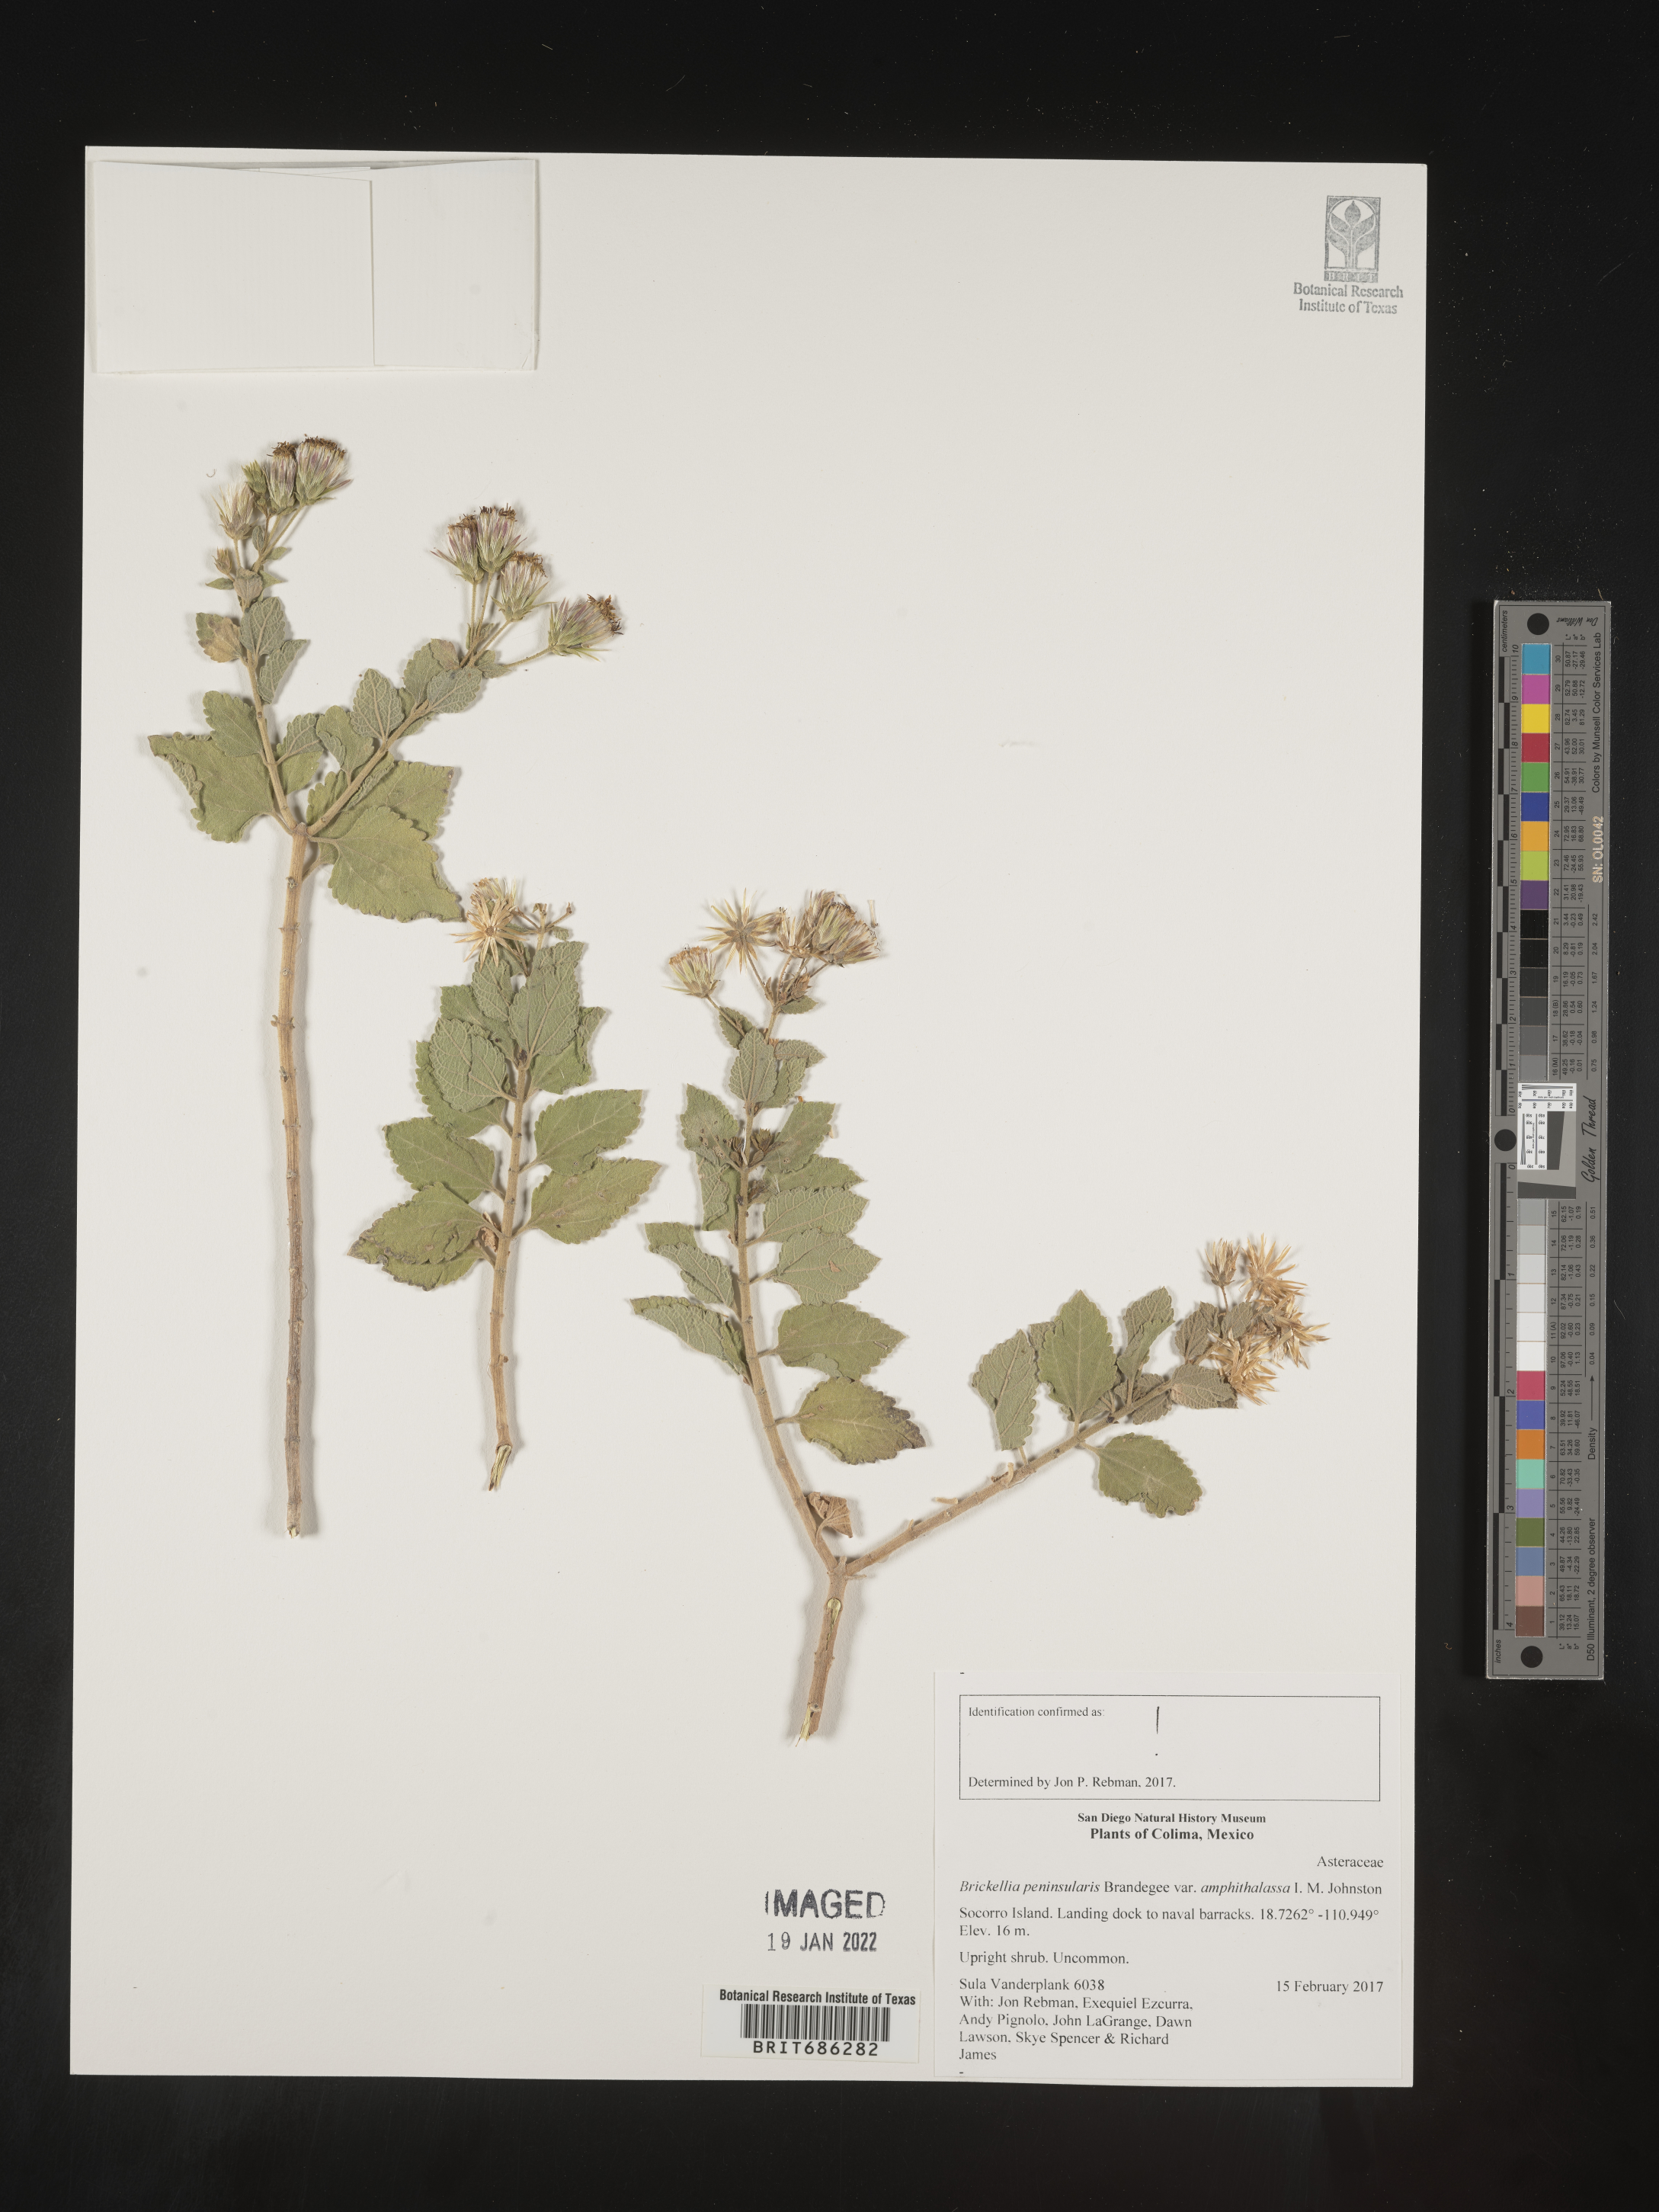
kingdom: Plantae
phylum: Tracheophyta
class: Magnoliopsida
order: Asterales
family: Asteraceae
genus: Brickellia
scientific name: Brickellia
